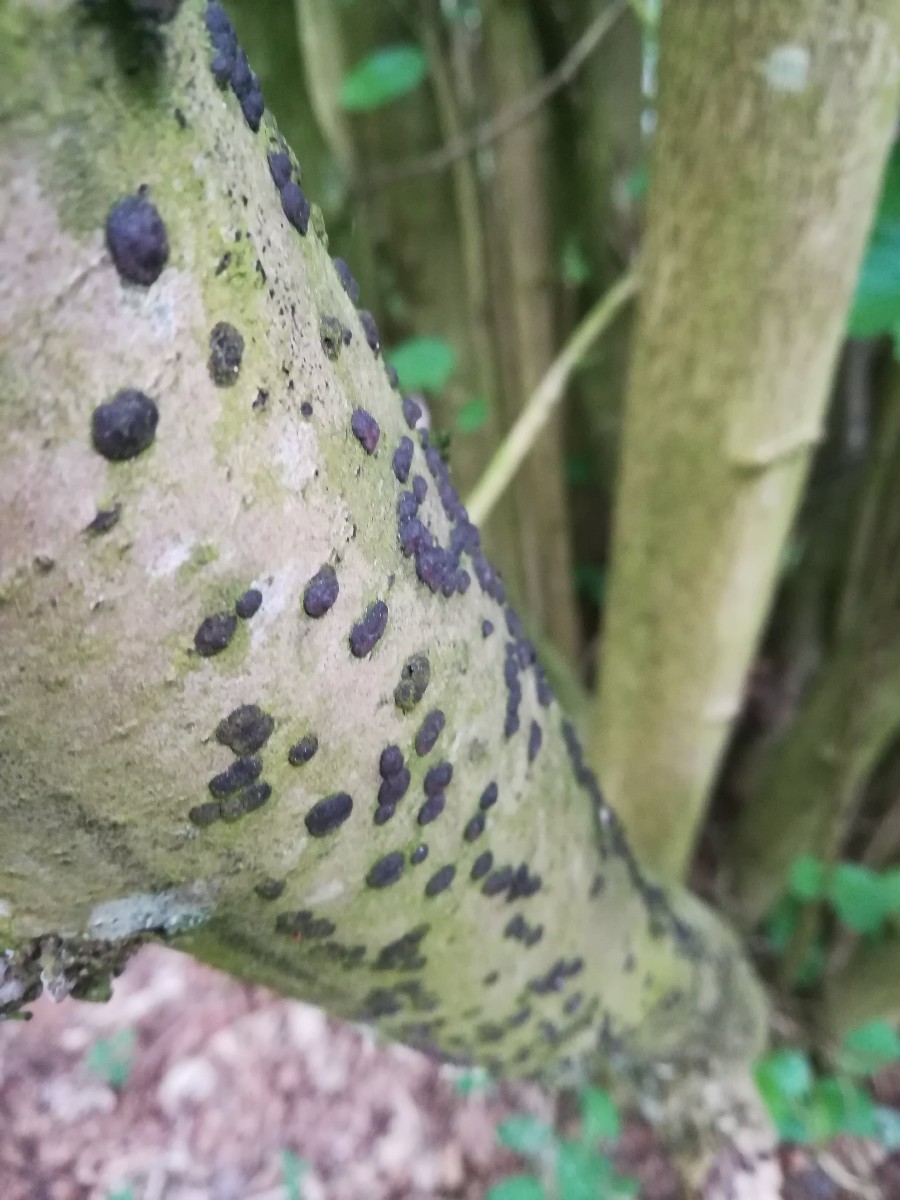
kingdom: Fungi
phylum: Ascomycota
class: Sordariomycetes
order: Xylariales
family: Hypoxylaceae
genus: Hypoxylon
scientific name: Hypoxylon fuscum
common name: kegleformet kulbær
